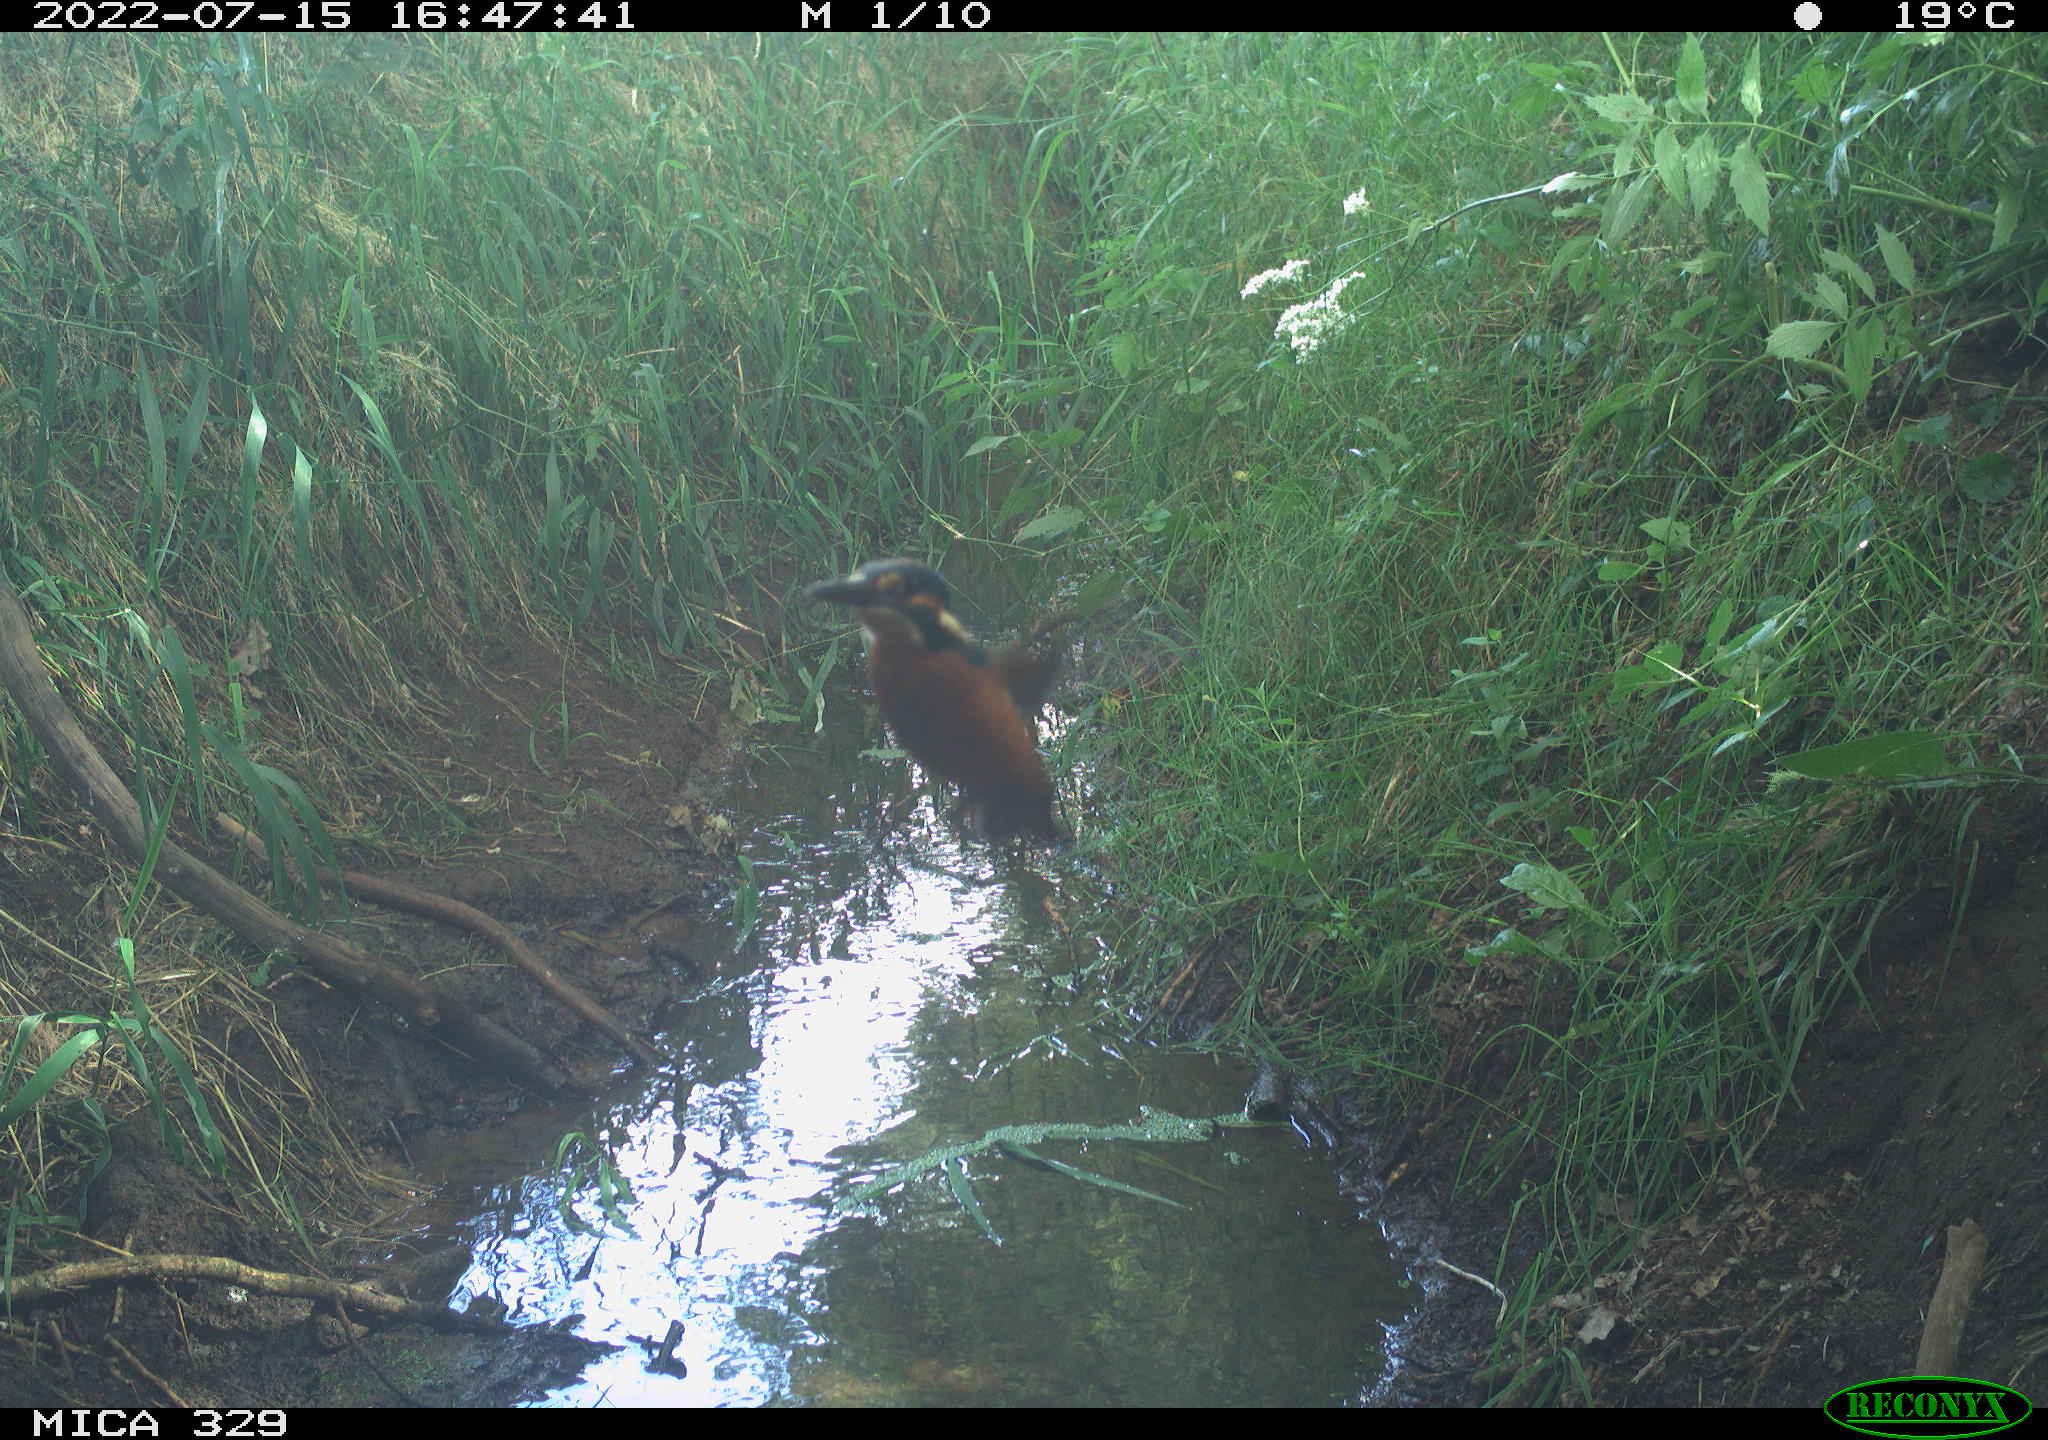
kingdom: Animalia
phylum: Chordata
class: Aves
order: Coraciiformes
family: Alcedinidae
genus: Alcedo
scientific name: Alcedo atthis
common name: Common kingfisher
